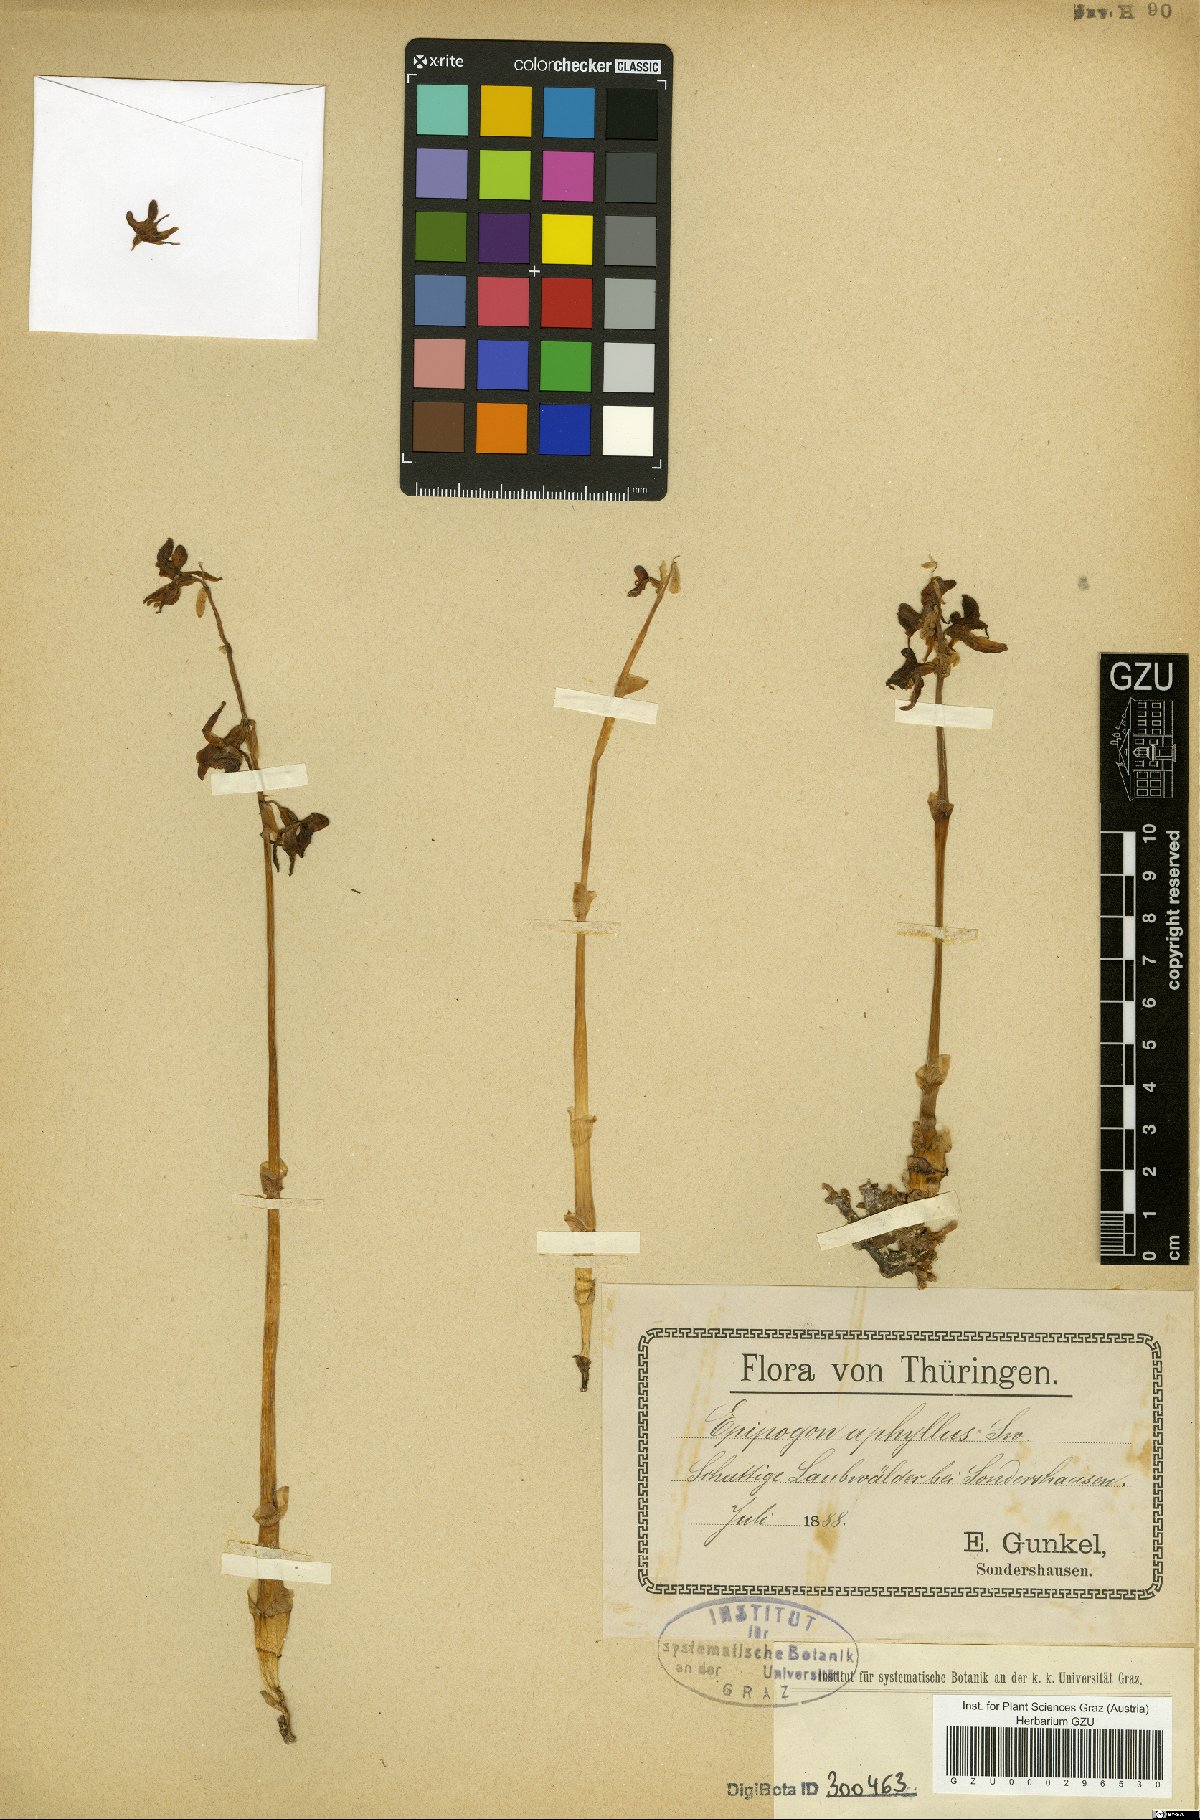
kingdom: Plantae
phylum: Tracheophyta
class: Liliopsida
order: Asparagales
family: Orchidaceae
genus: Epipogium
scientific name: Epipogium aphyllum
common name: Ghost orchid
